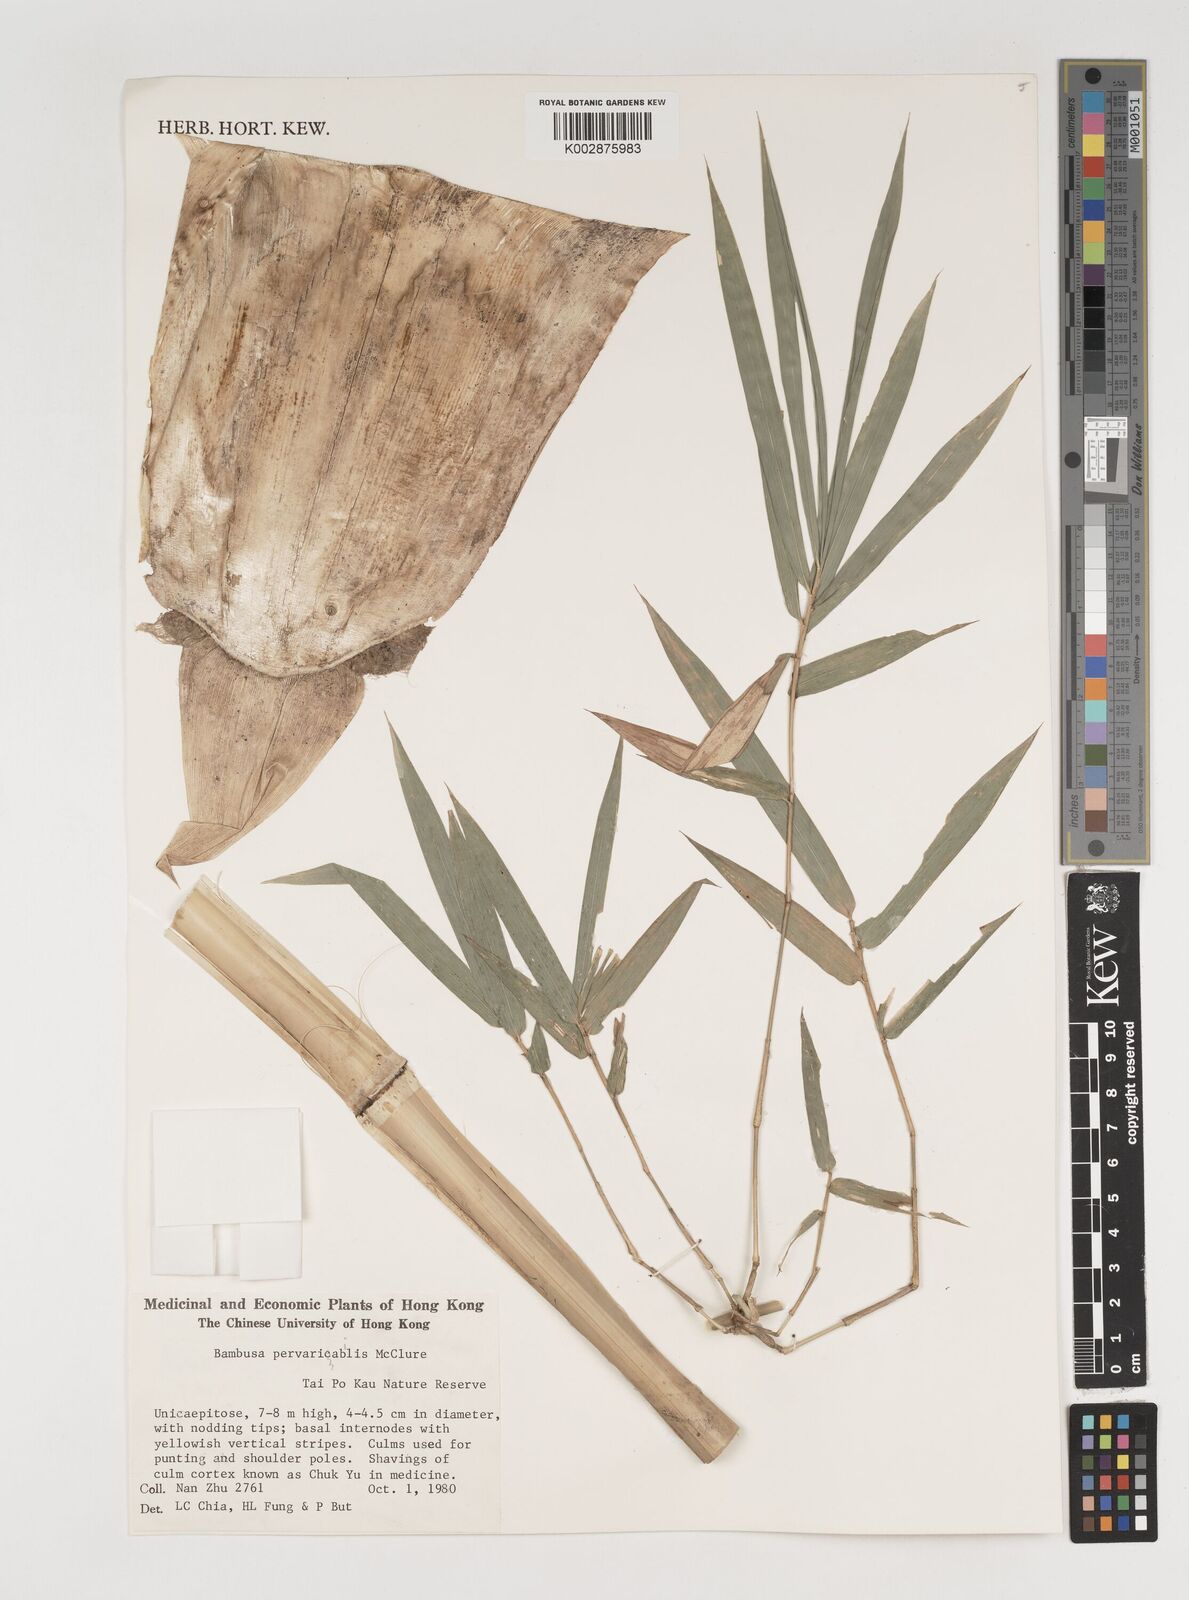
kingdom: Plantae
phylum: Tracheophyta
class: Liliopsida
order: Poales
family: Poaceae
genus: Bambusa
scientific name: Bambusa pervariabilis
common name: Puntingpole bamboo
